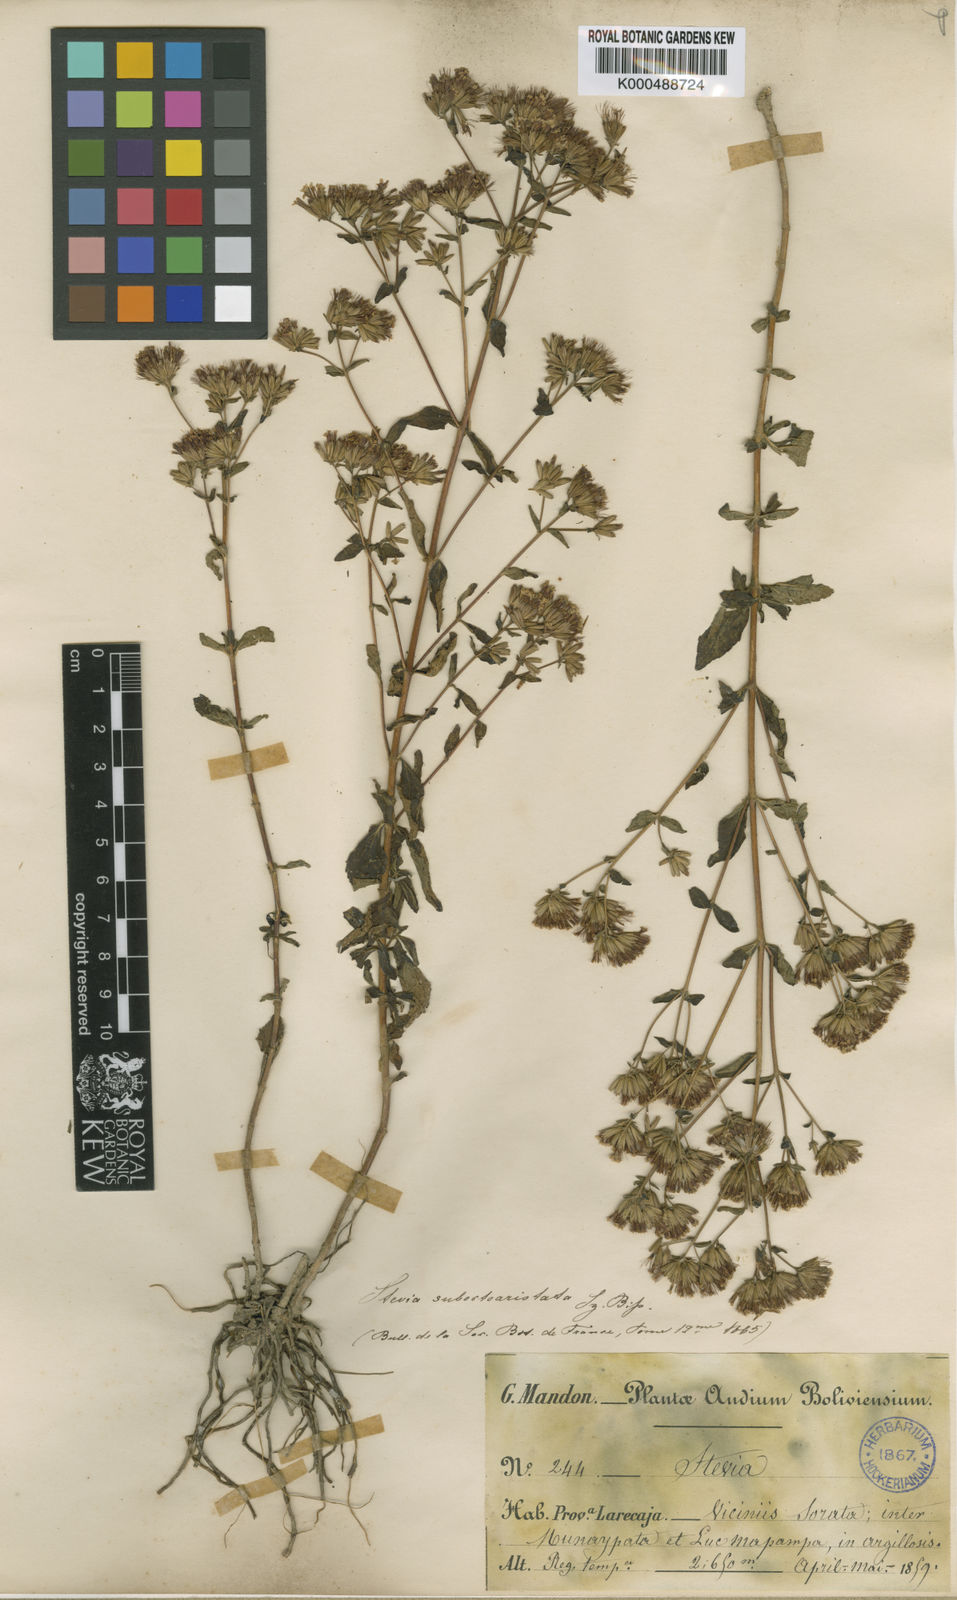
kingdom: Plantae
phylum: Tracheophyta
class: Magnoliopsida
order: Asterales
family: Asteraceae
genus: Stevia
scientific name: Stevia minor
